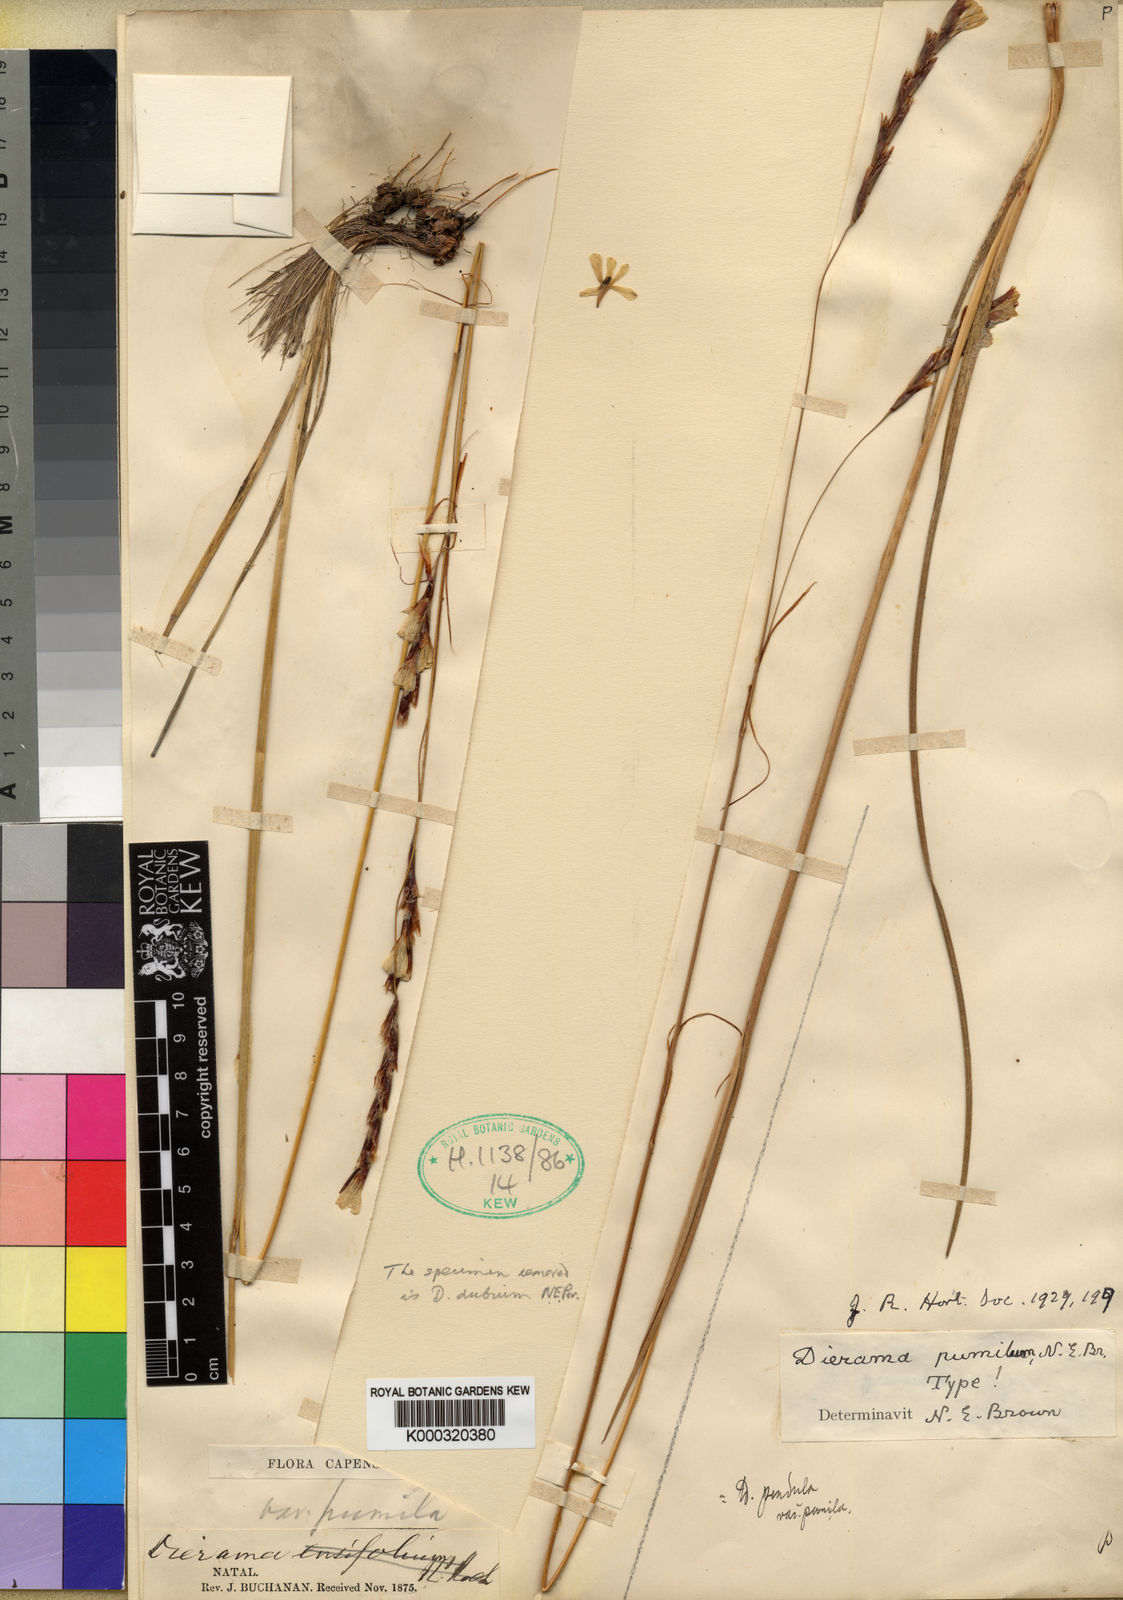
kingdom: Plantae
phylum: Tracheophyta
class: Liliopsida
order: Asparagales
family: Iridaceae
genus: Dierama
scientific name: Dierama pumilum
